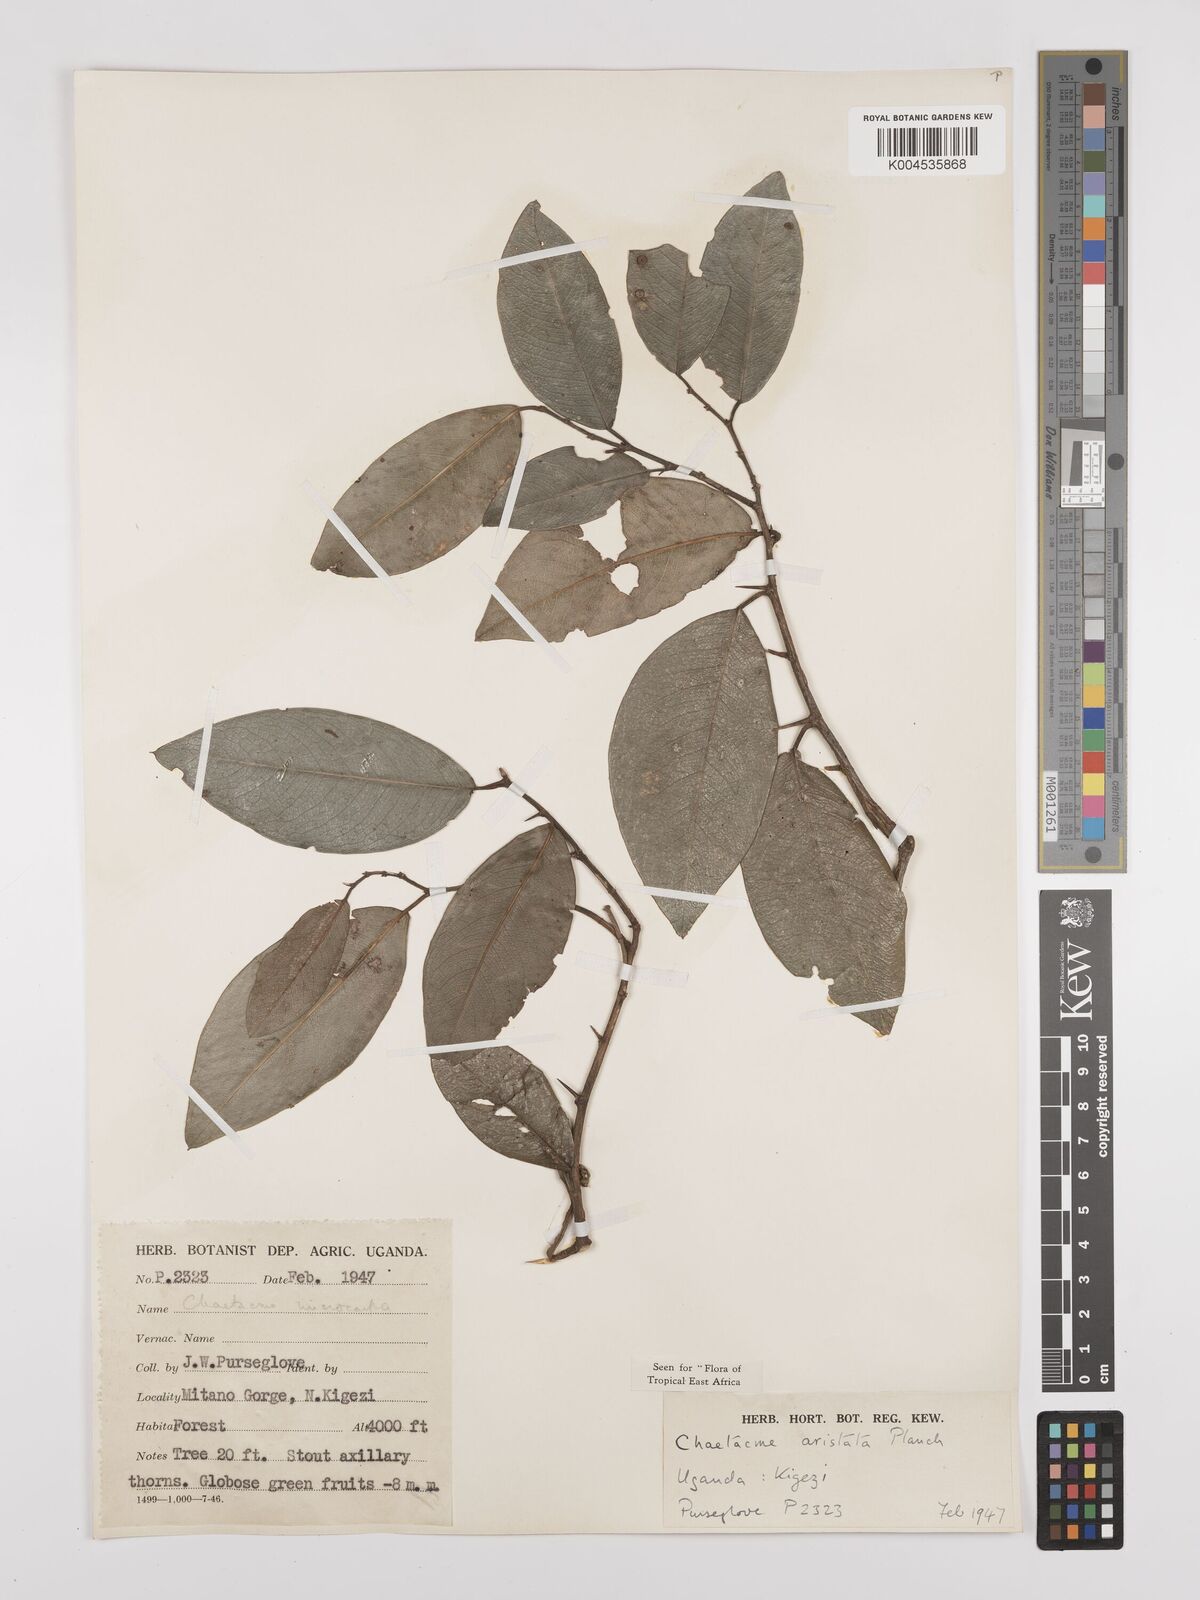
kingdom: Plantae
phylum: Tracheophyta
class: Magnoliopsida
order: Rosales
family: Cannabaceae
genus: Chaetachme
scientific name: Chaetachme aristata
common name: Thorny elm
